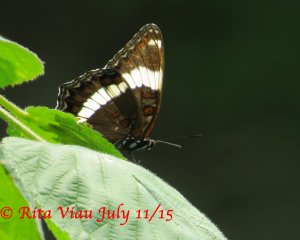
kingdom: Animalia
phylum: Arthropoda
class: Insecta
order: Lepidoptera
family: Nymphalidae
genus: Limenitis
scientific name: Limenitis arthemis
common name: Red-spotted Admiral
